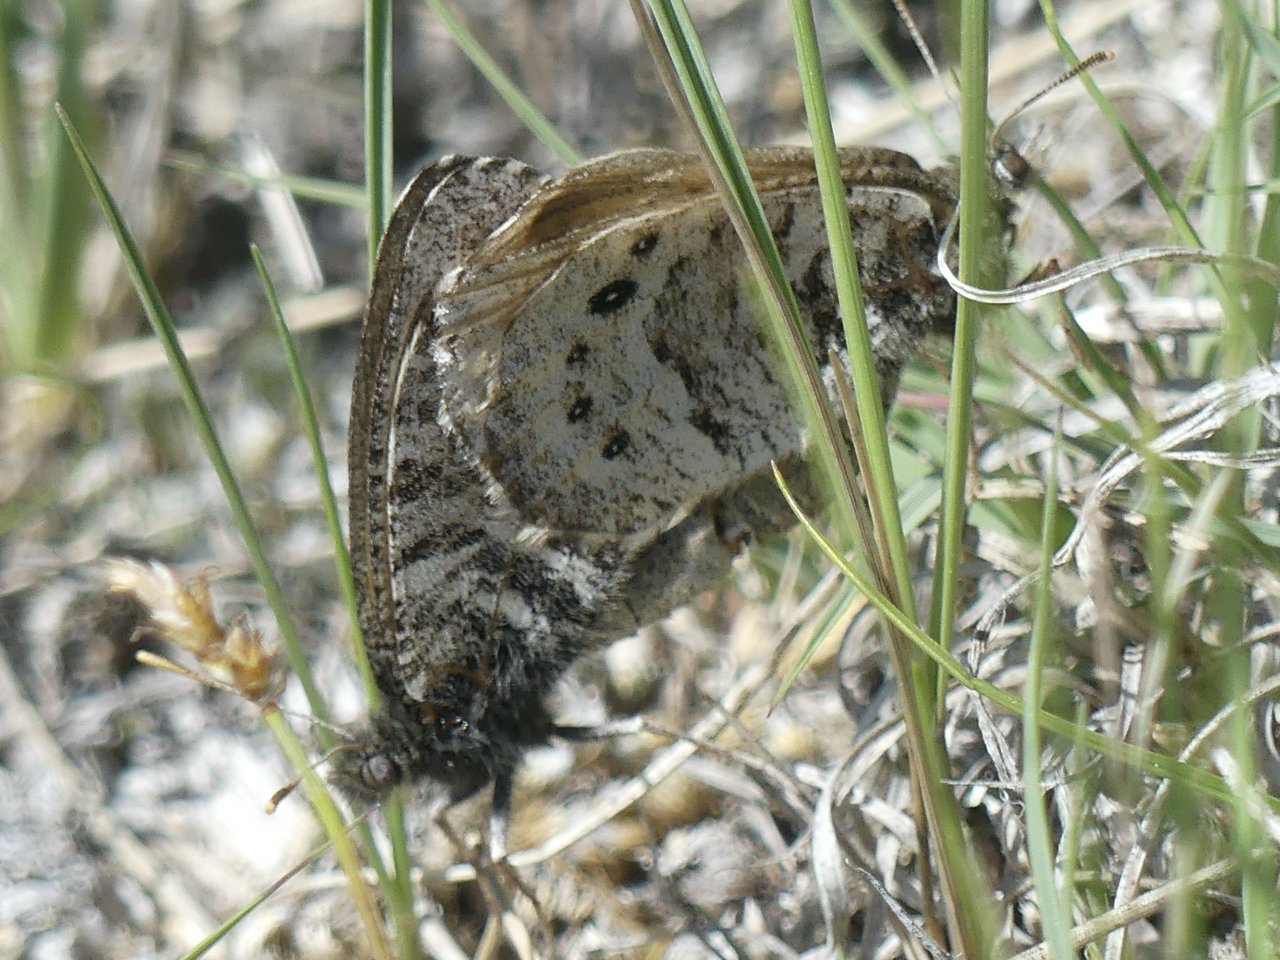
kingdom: Animalia
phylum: Arthropoda
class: Insecta
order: Lepidoptera
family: Nymphalidae
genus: Oeneis
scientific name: Oeneis uhleri
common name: Uhler's Arctic
